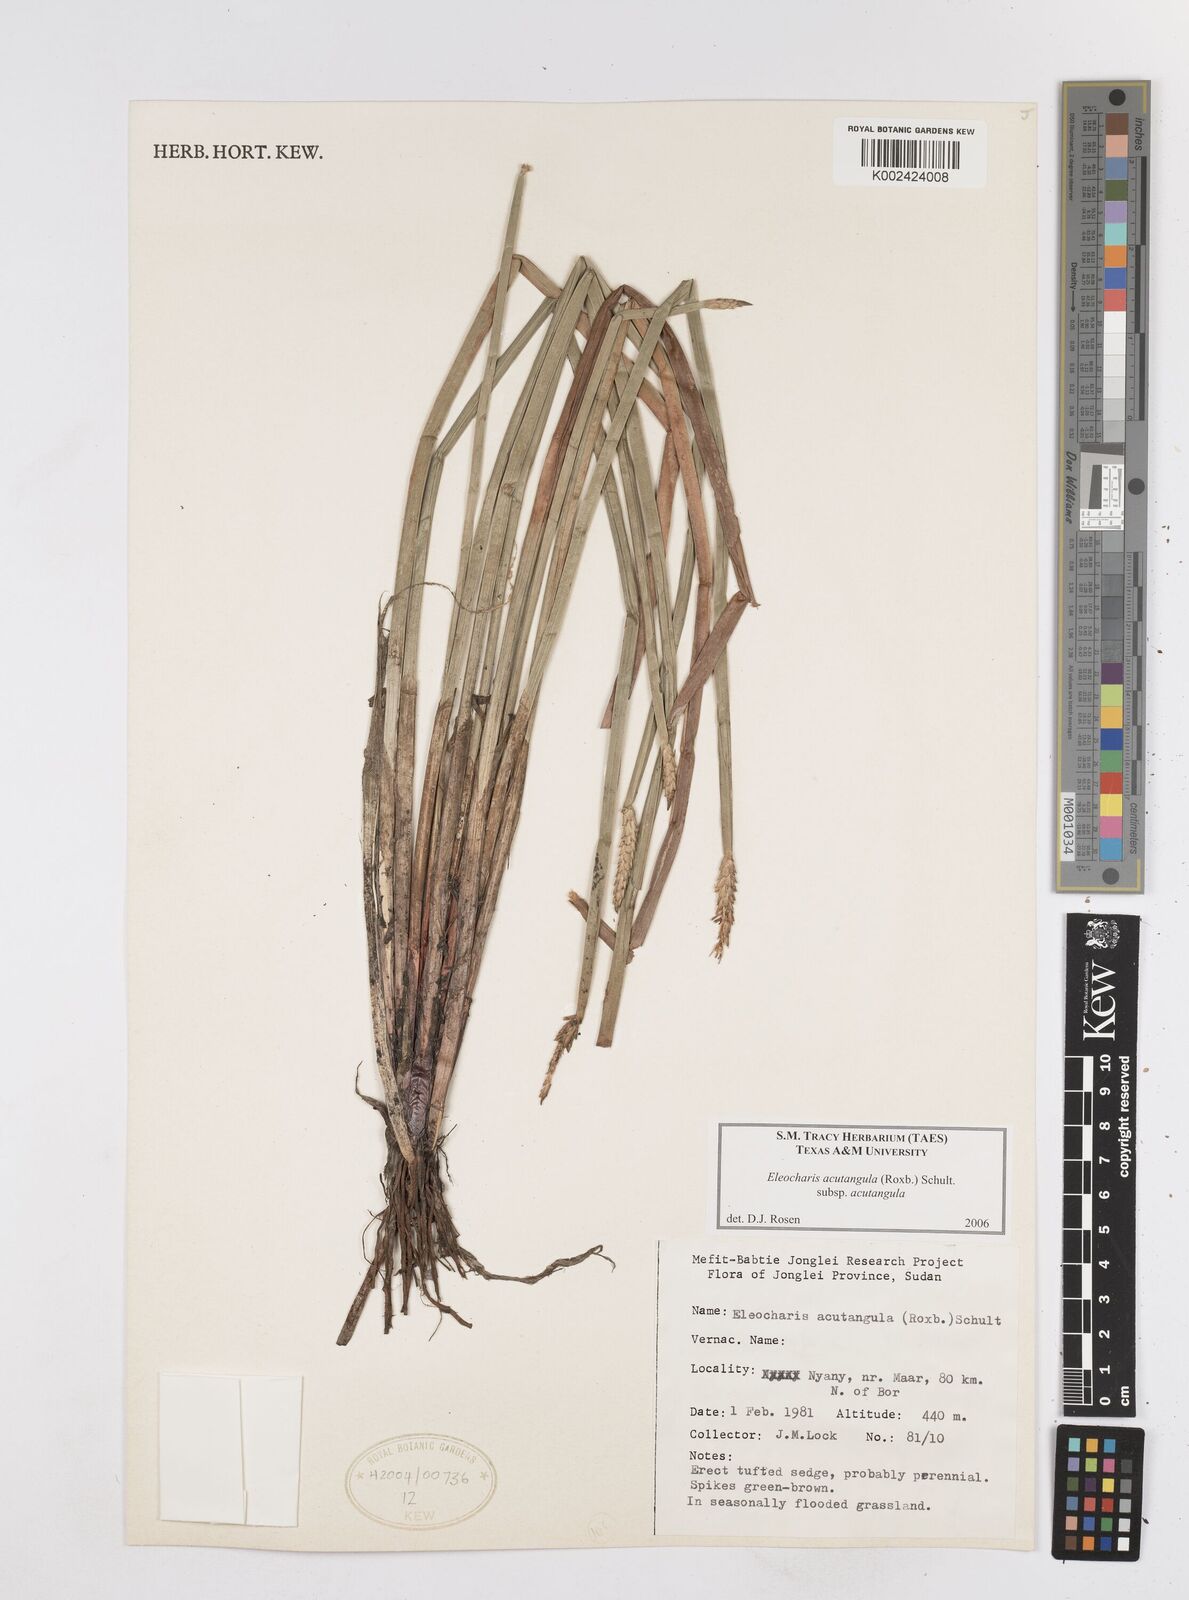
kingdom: Plantae
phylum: Tracheophyta
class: Liliopsida
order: Poales
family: Cyperaceae
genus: Eleocharis
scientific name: Eleocharis acutangula
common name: Acute spikerush
